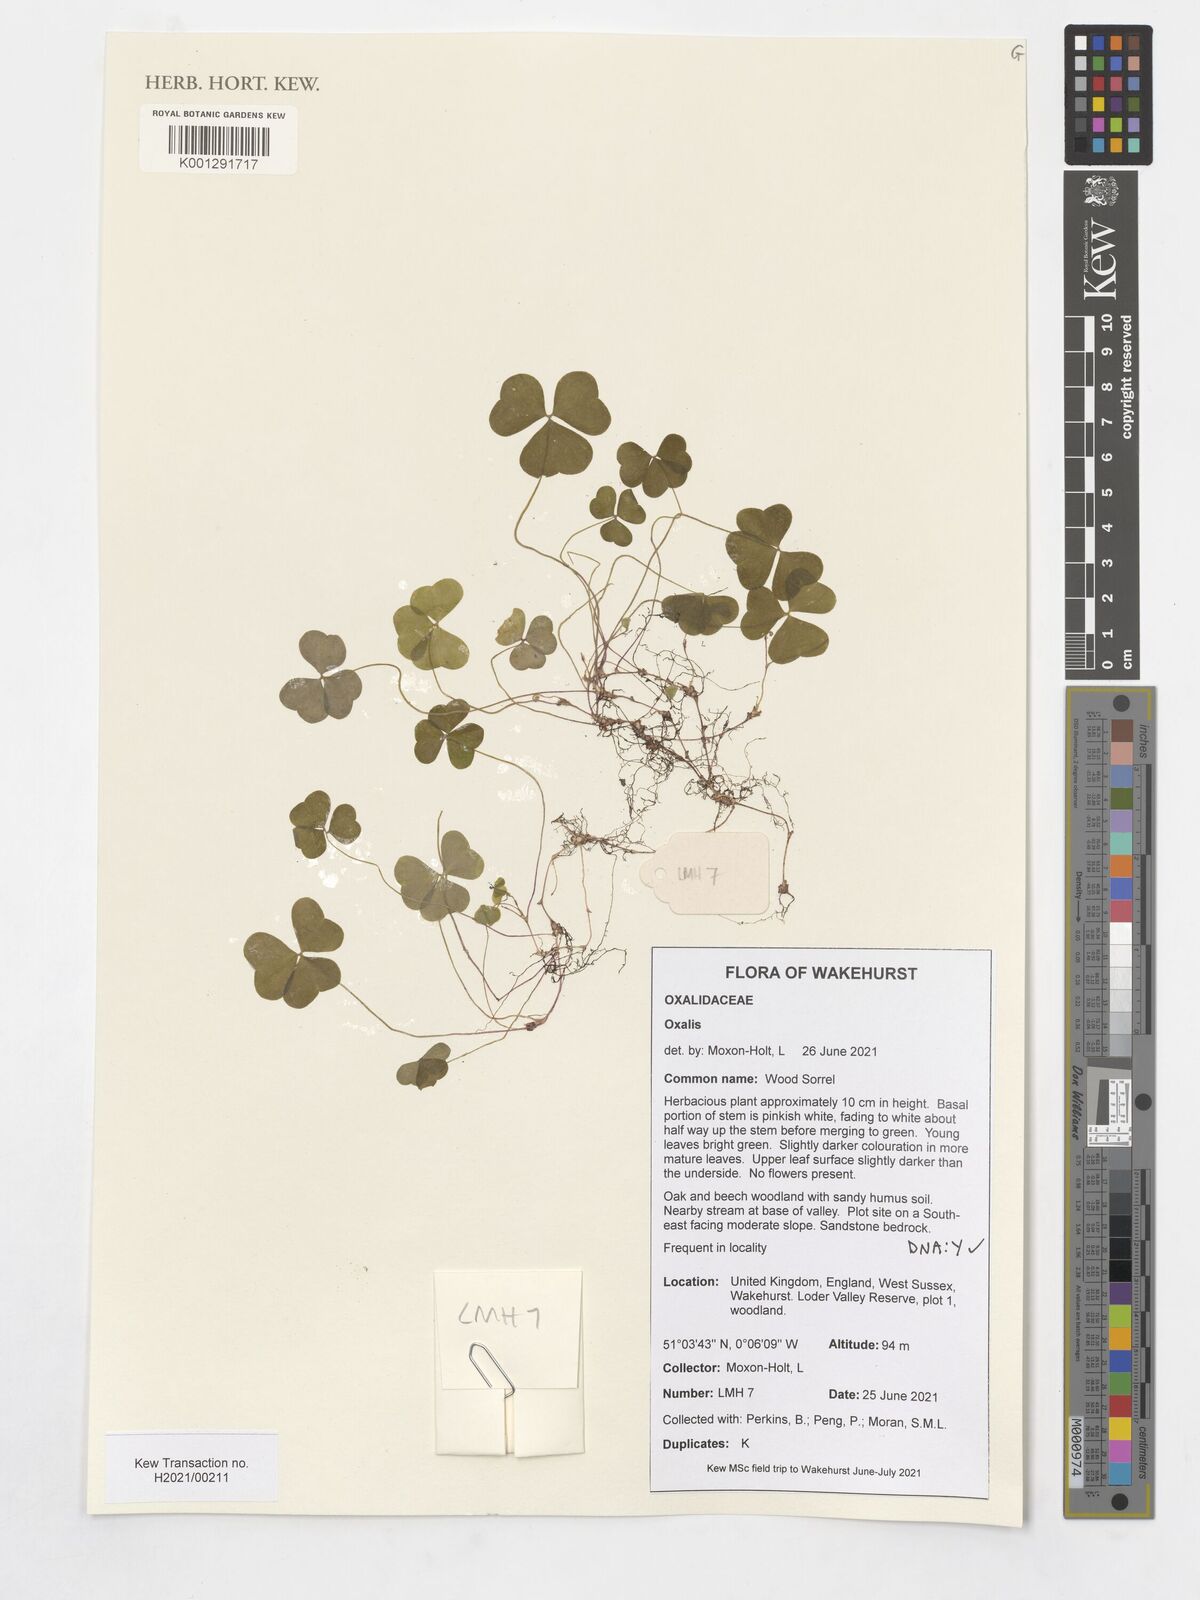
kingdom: Plantae
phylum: Tracheophyta
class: Magnoliopsida
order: Oxalidales
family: Oxalidaceae
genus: Oxalis
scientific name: Oxalis
